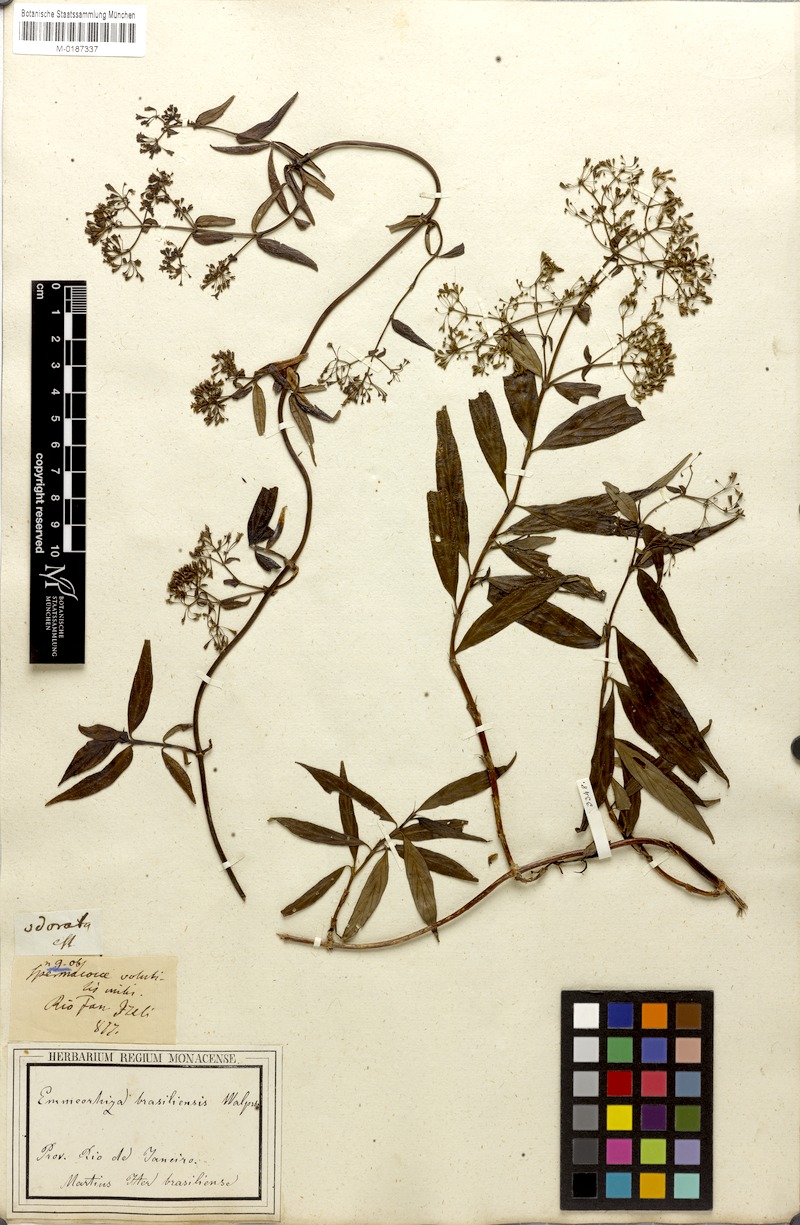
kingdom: Plantae
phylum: Tracheophyta
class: Magnoliopsida
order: Gentianales
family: Rubiaceae
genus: Emmeorhiza
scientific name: Emmeorhiza umbellata
